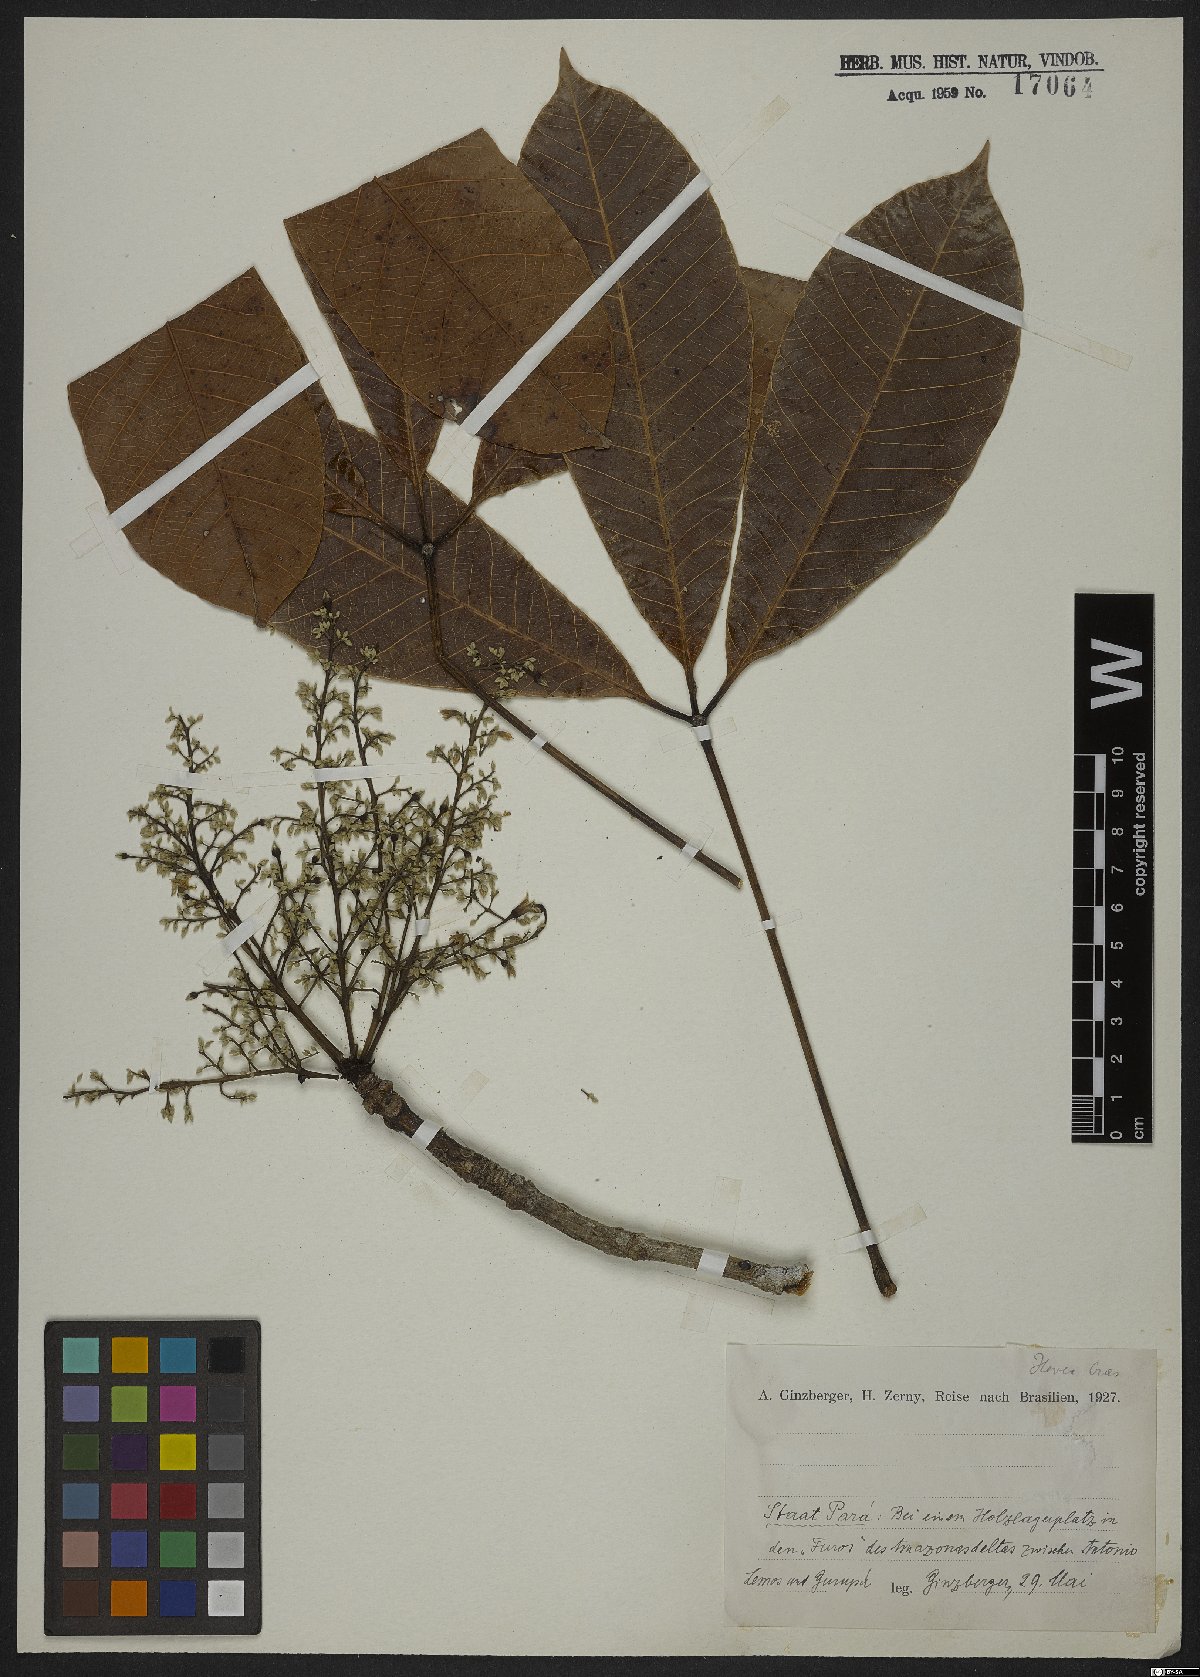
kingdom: Plantae
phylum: Tracheophyta
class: Magnoliopsida
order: Malpighiales
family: Euphorbiaceae
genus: Hevea
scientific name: Hevea
